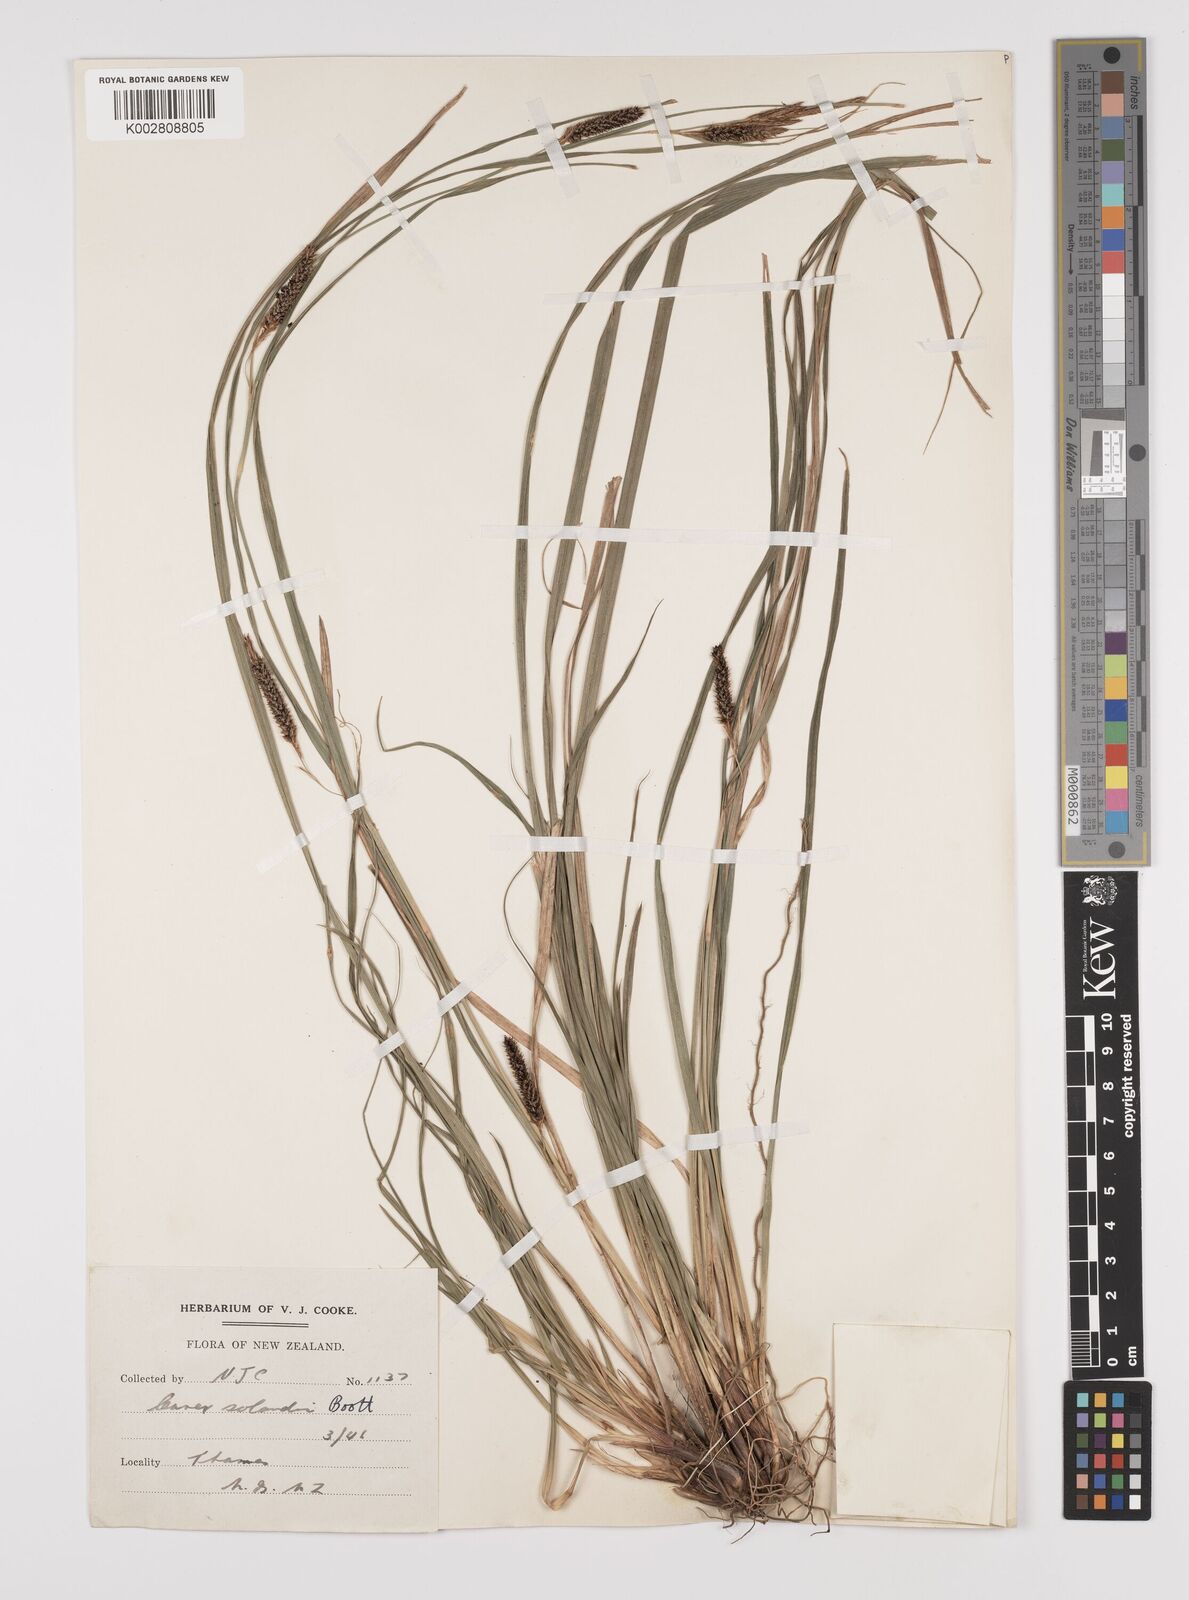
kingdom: Plantae
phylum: Tracheophyta
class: Liliopsida
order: Poales
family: Cyperaceae
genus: Carex
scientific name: Carex dissita
